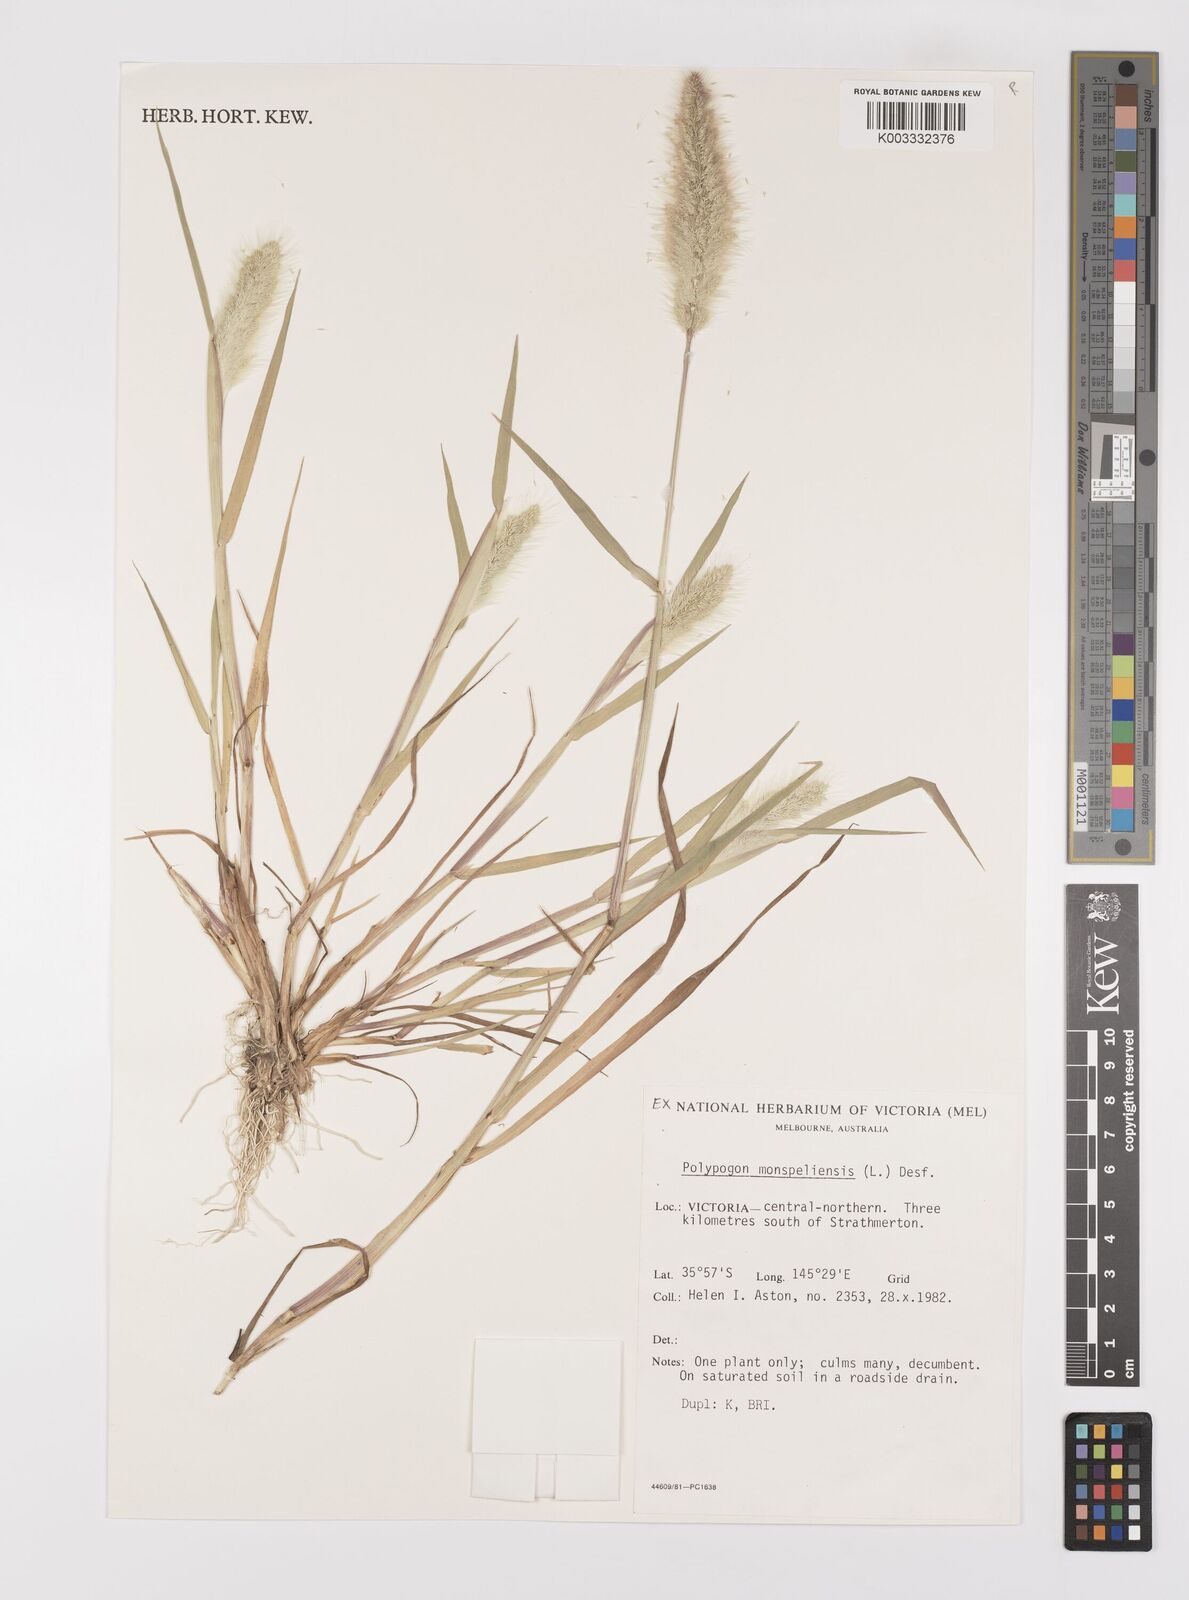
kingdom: Plantae
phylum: Tracheophyta
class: Liliopsida
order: Poales
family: Poaceae
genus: Polypogon
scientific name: Polypogon monspeliensis
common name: Annual rabbitsfoot grass
